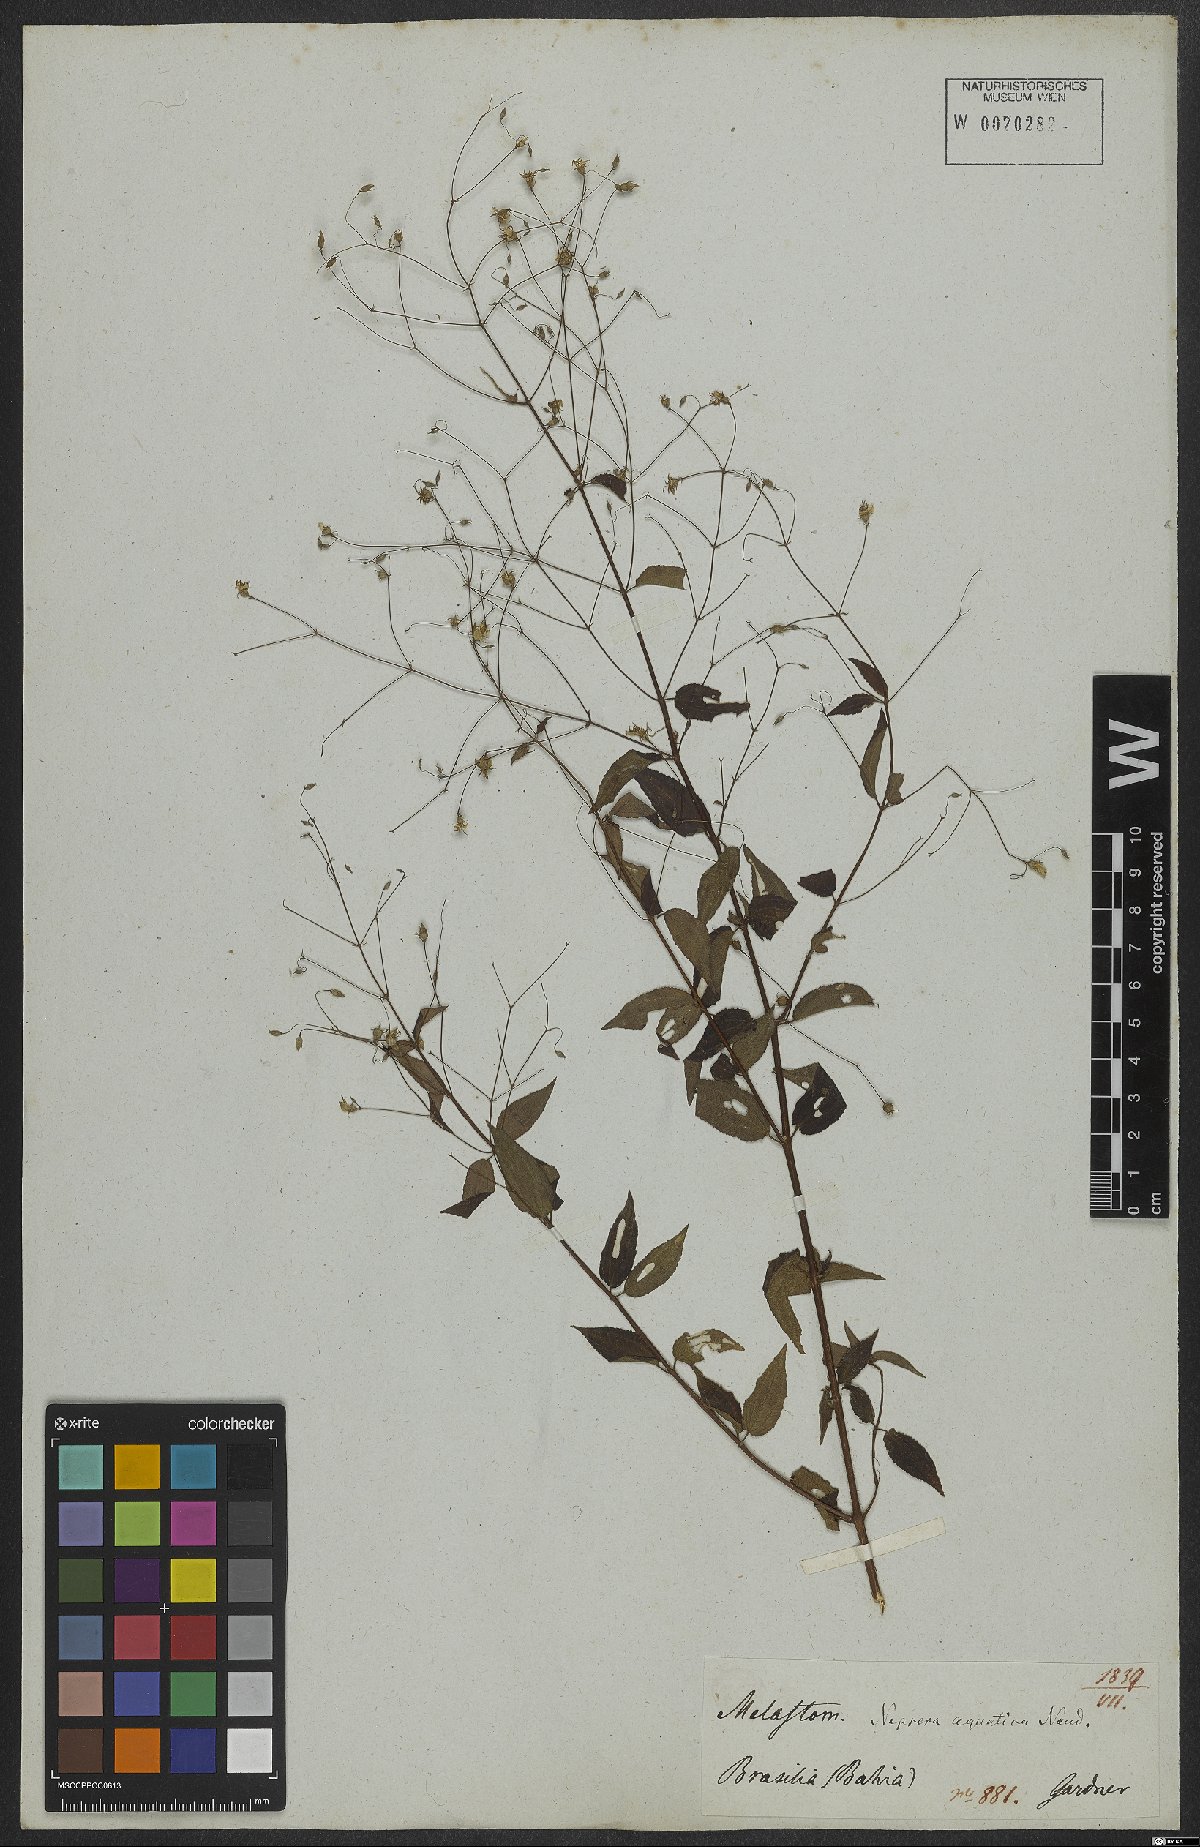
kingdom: Plantae
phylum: Tracheophyta
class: Magnoliopsida
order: Myrtales
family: Melastomataceae
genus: Nepsera
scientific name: Nepsera aquatica
